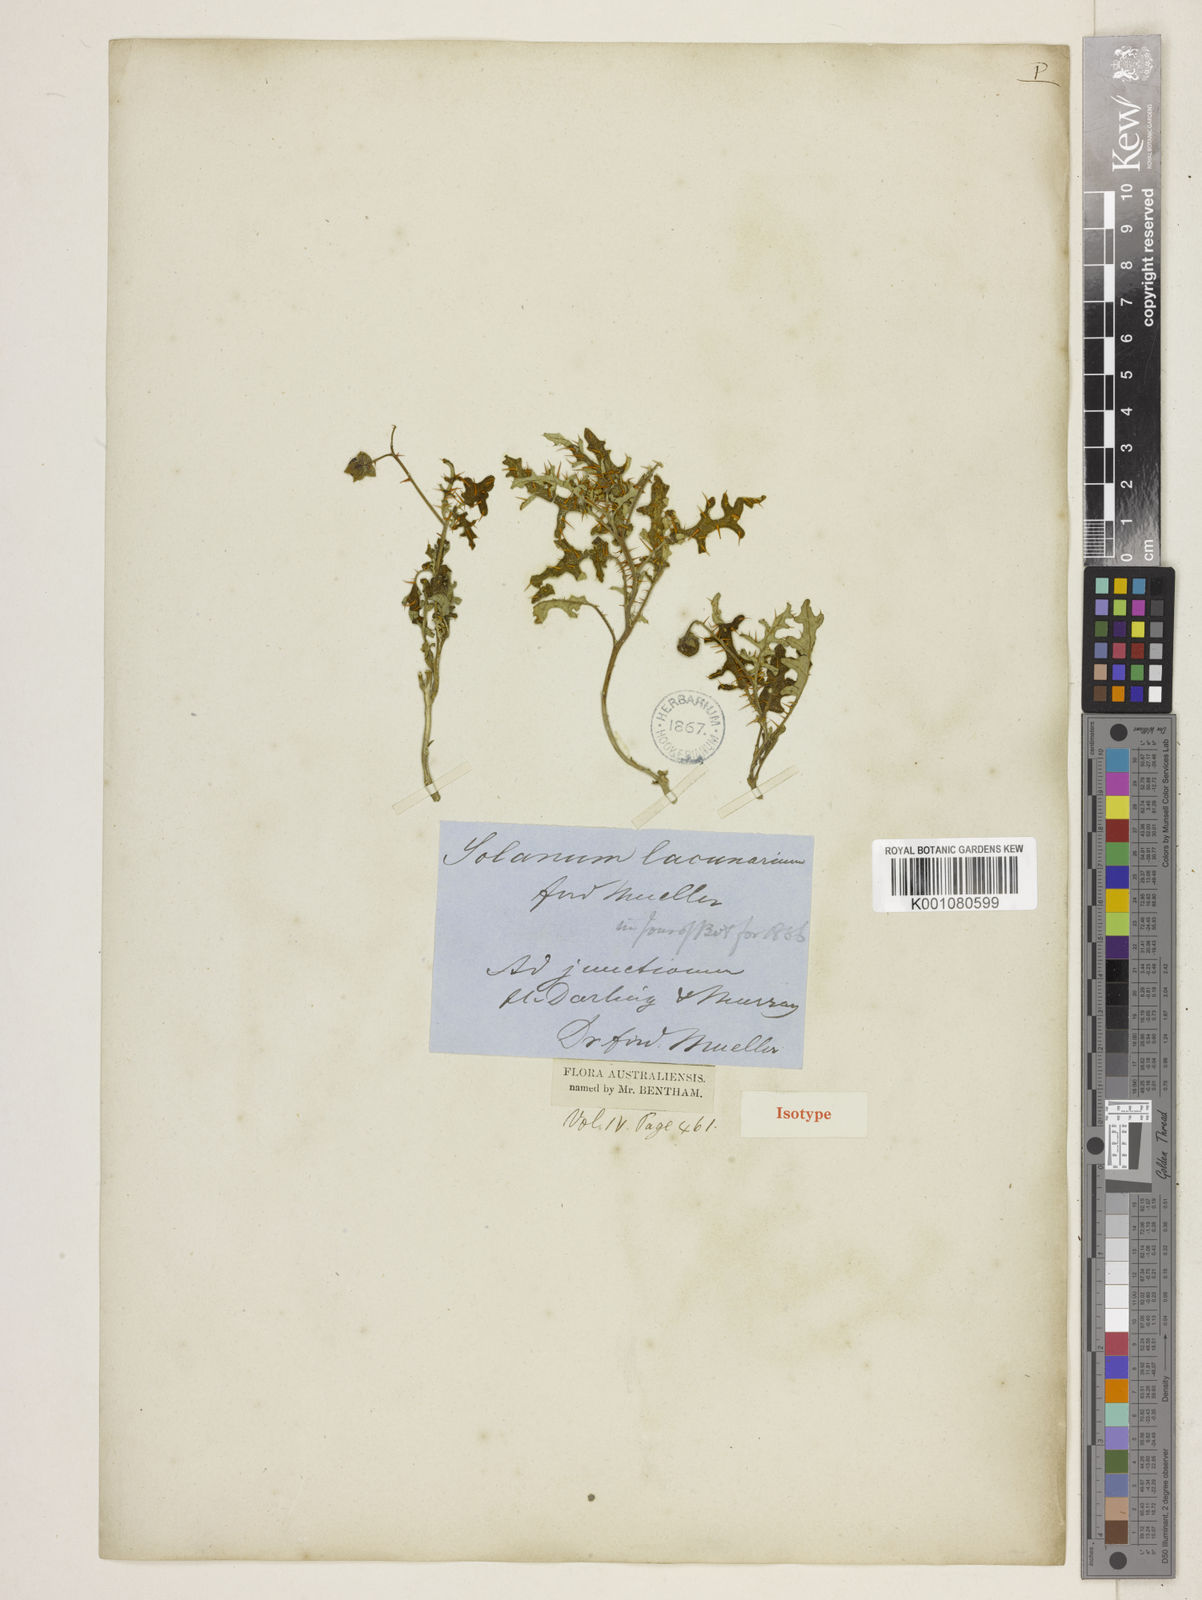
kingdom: Plantae
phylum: Tracheophyta
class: Magnoliopsida
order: Solanales
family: Solanaceae
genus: Solanum
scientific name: Solanum lacunarium
